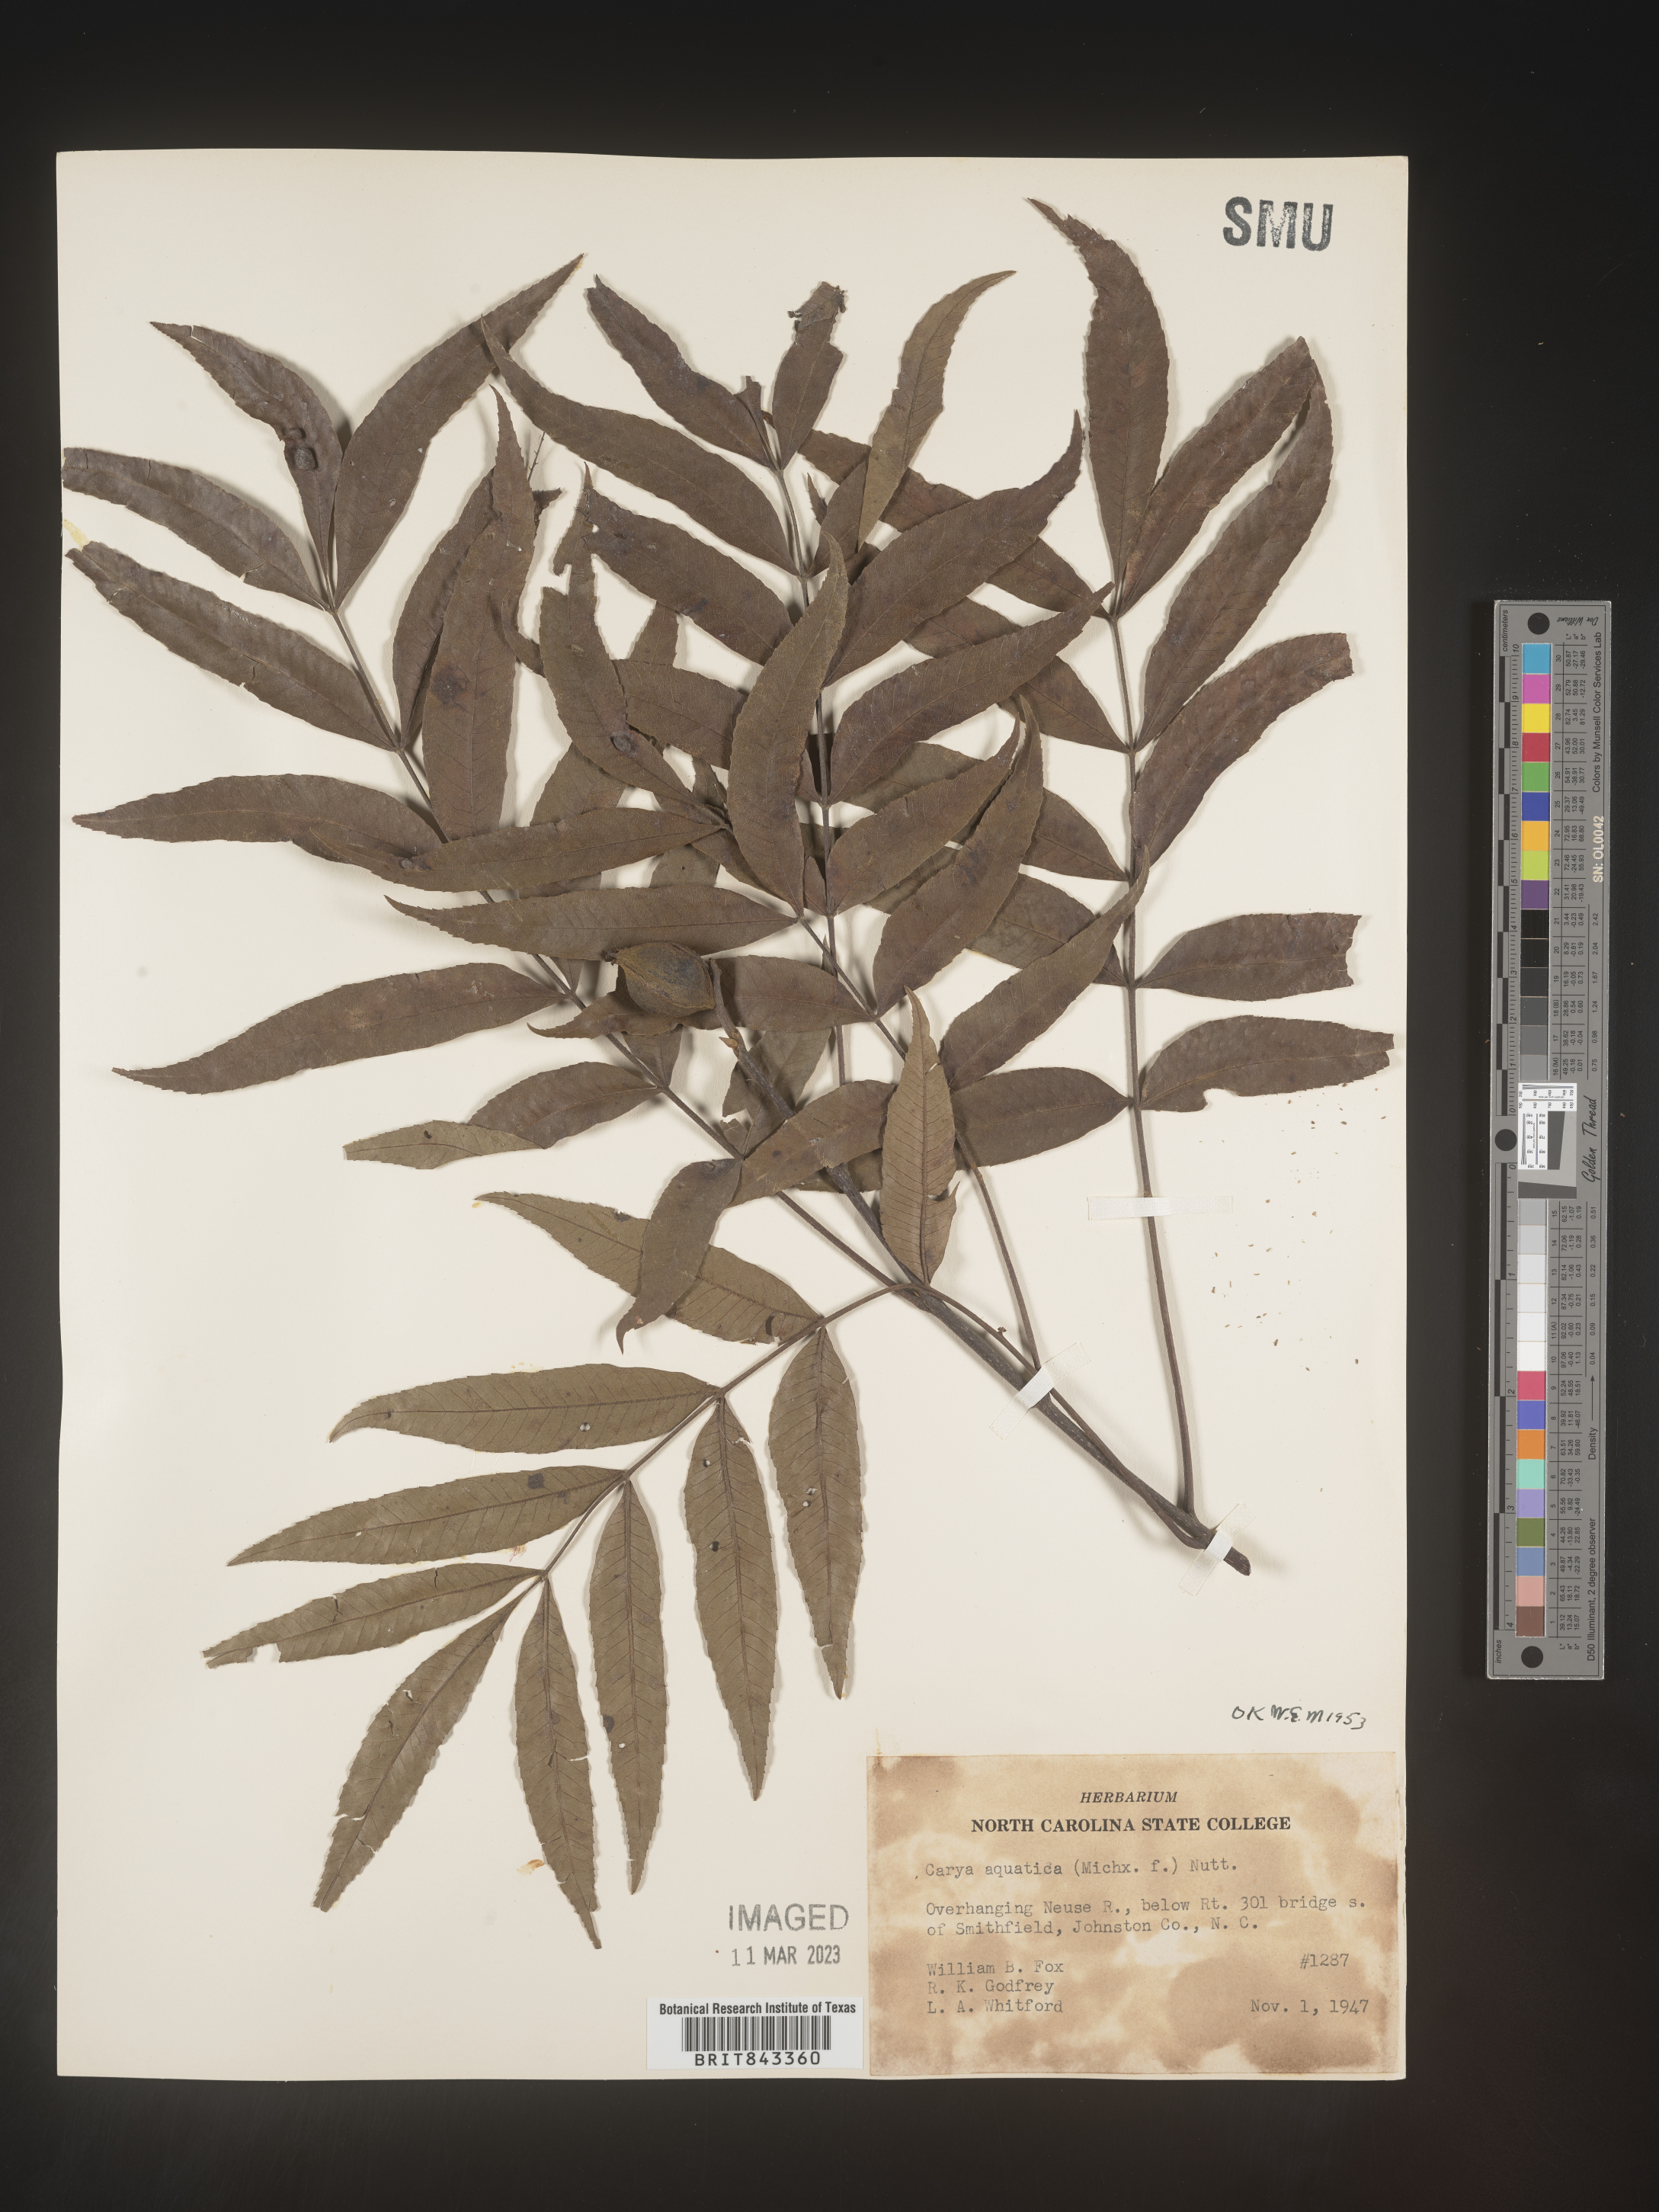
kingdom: Plantae
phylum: Tracheophyta
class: Magnoliopsida
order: Fagales
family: Juglandaceae
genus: Carya
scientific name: Carya aquatica
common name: Water hickory
